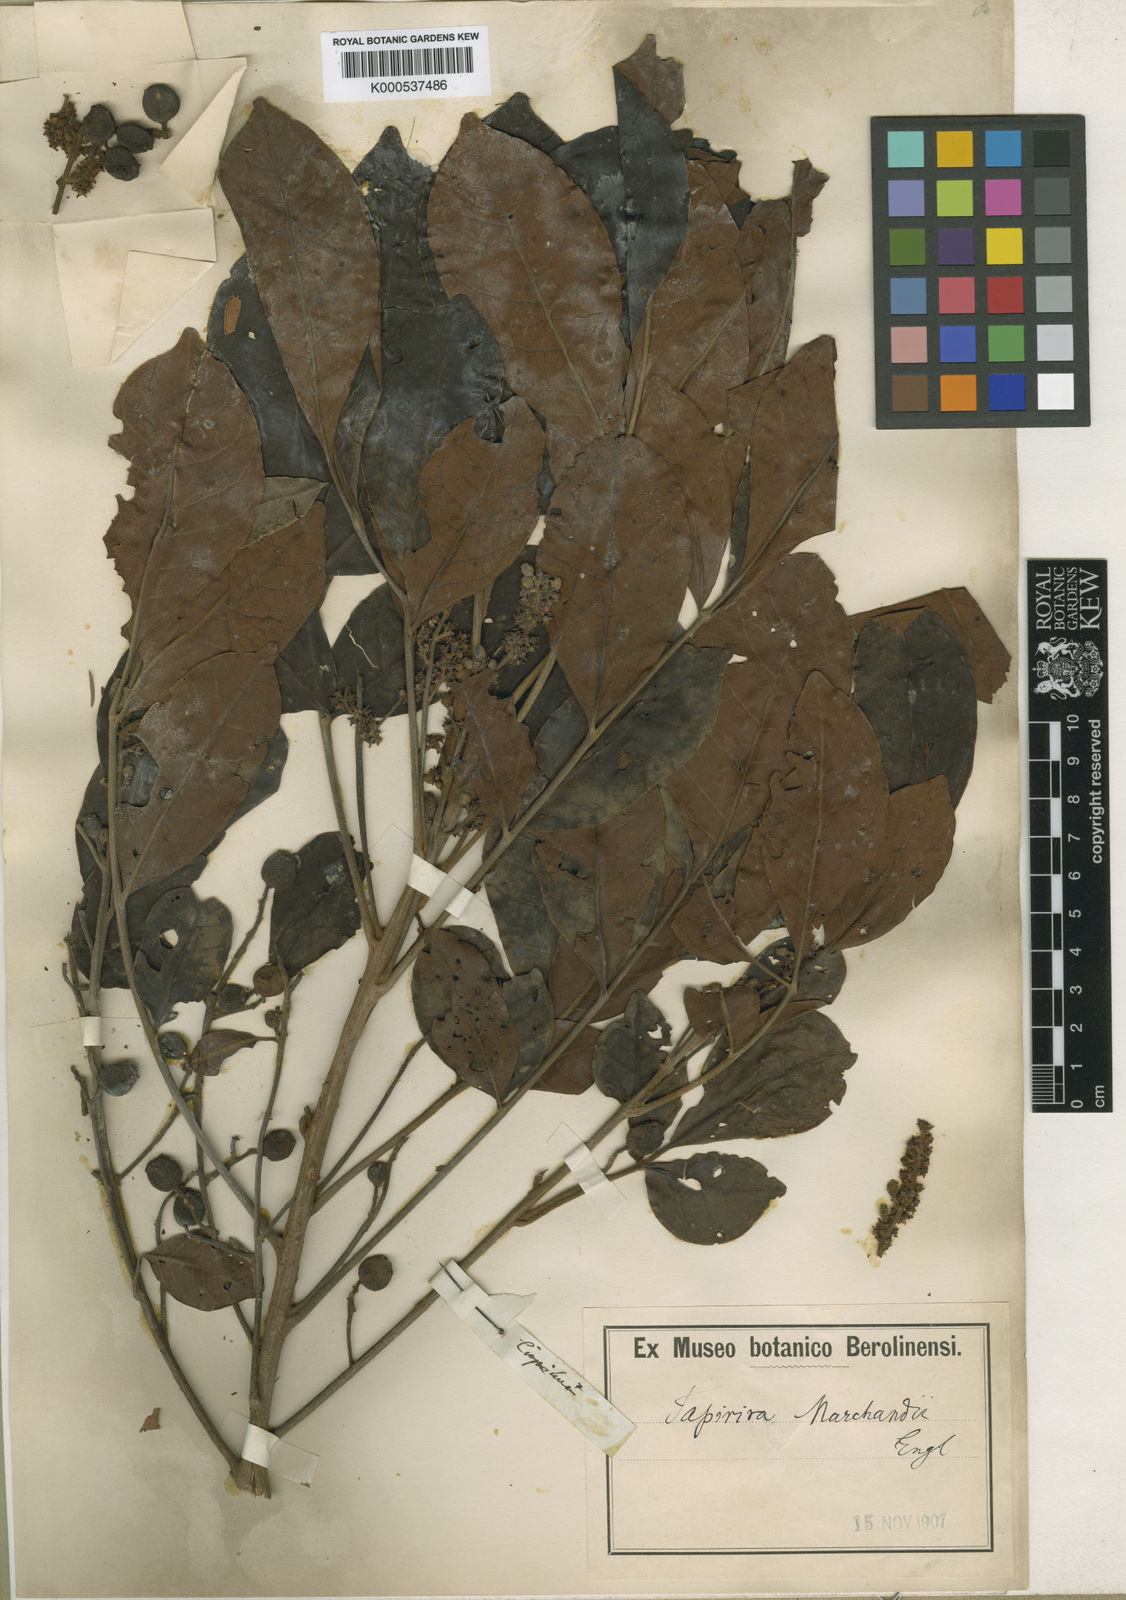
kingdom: Plantae
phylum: Tracheophyta
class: Magnoliopsida
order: Sapindales
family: Anacardiaceae
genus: Tapirira
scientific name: Tapirira obtusa
